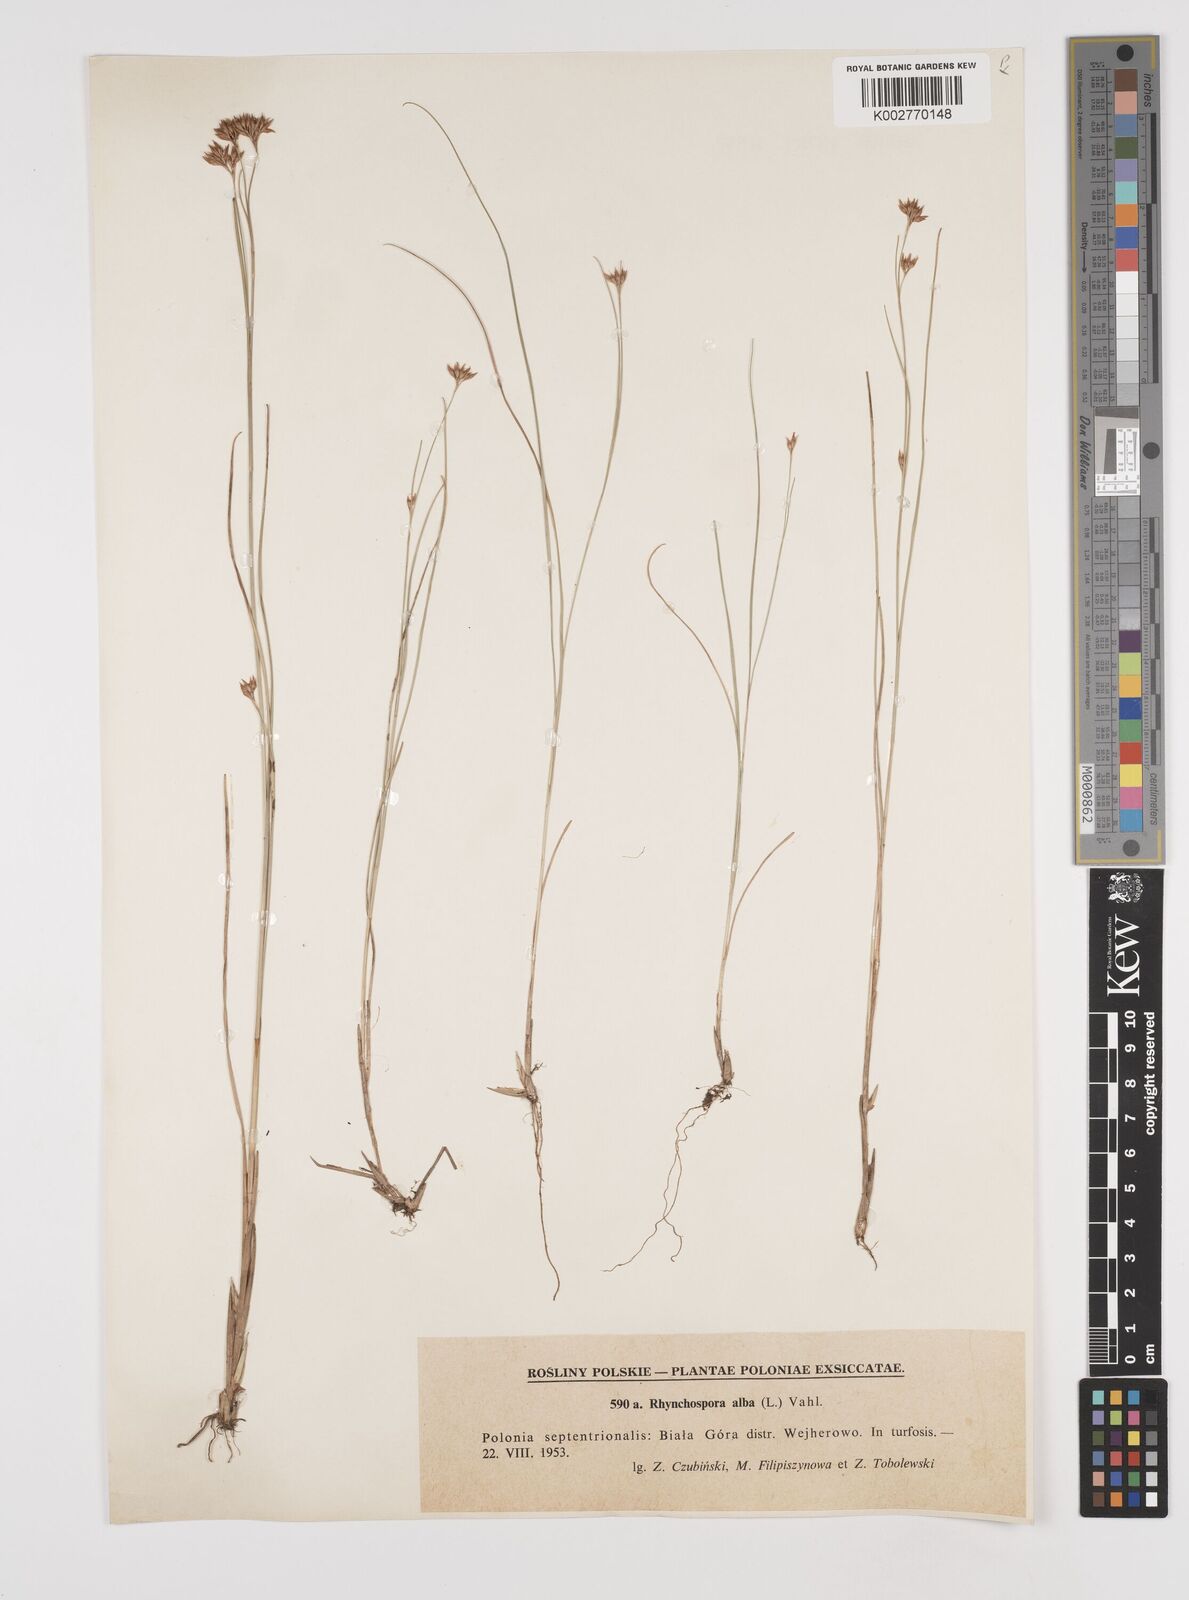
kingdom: Plantae
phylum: Tracheophyta
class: Liliopsida
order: Poales
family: Cyperaceae
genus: Rhynchospora
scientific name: Rhynchospora alba
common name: White beak-sedge
